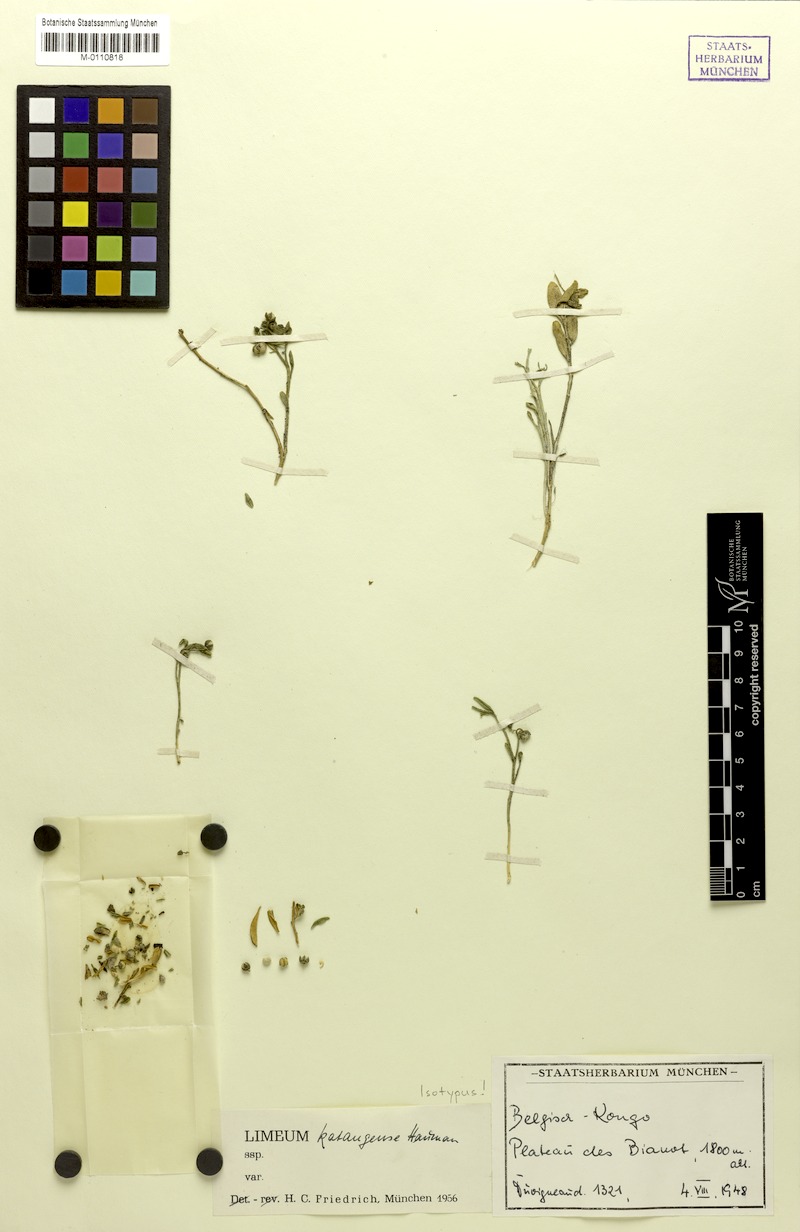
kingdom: Plantae
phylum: Tracheophyta
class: Magnoliopsida
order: Caryophyllales
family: Limeaceae
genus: Limeum
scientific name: Limeum katangense
